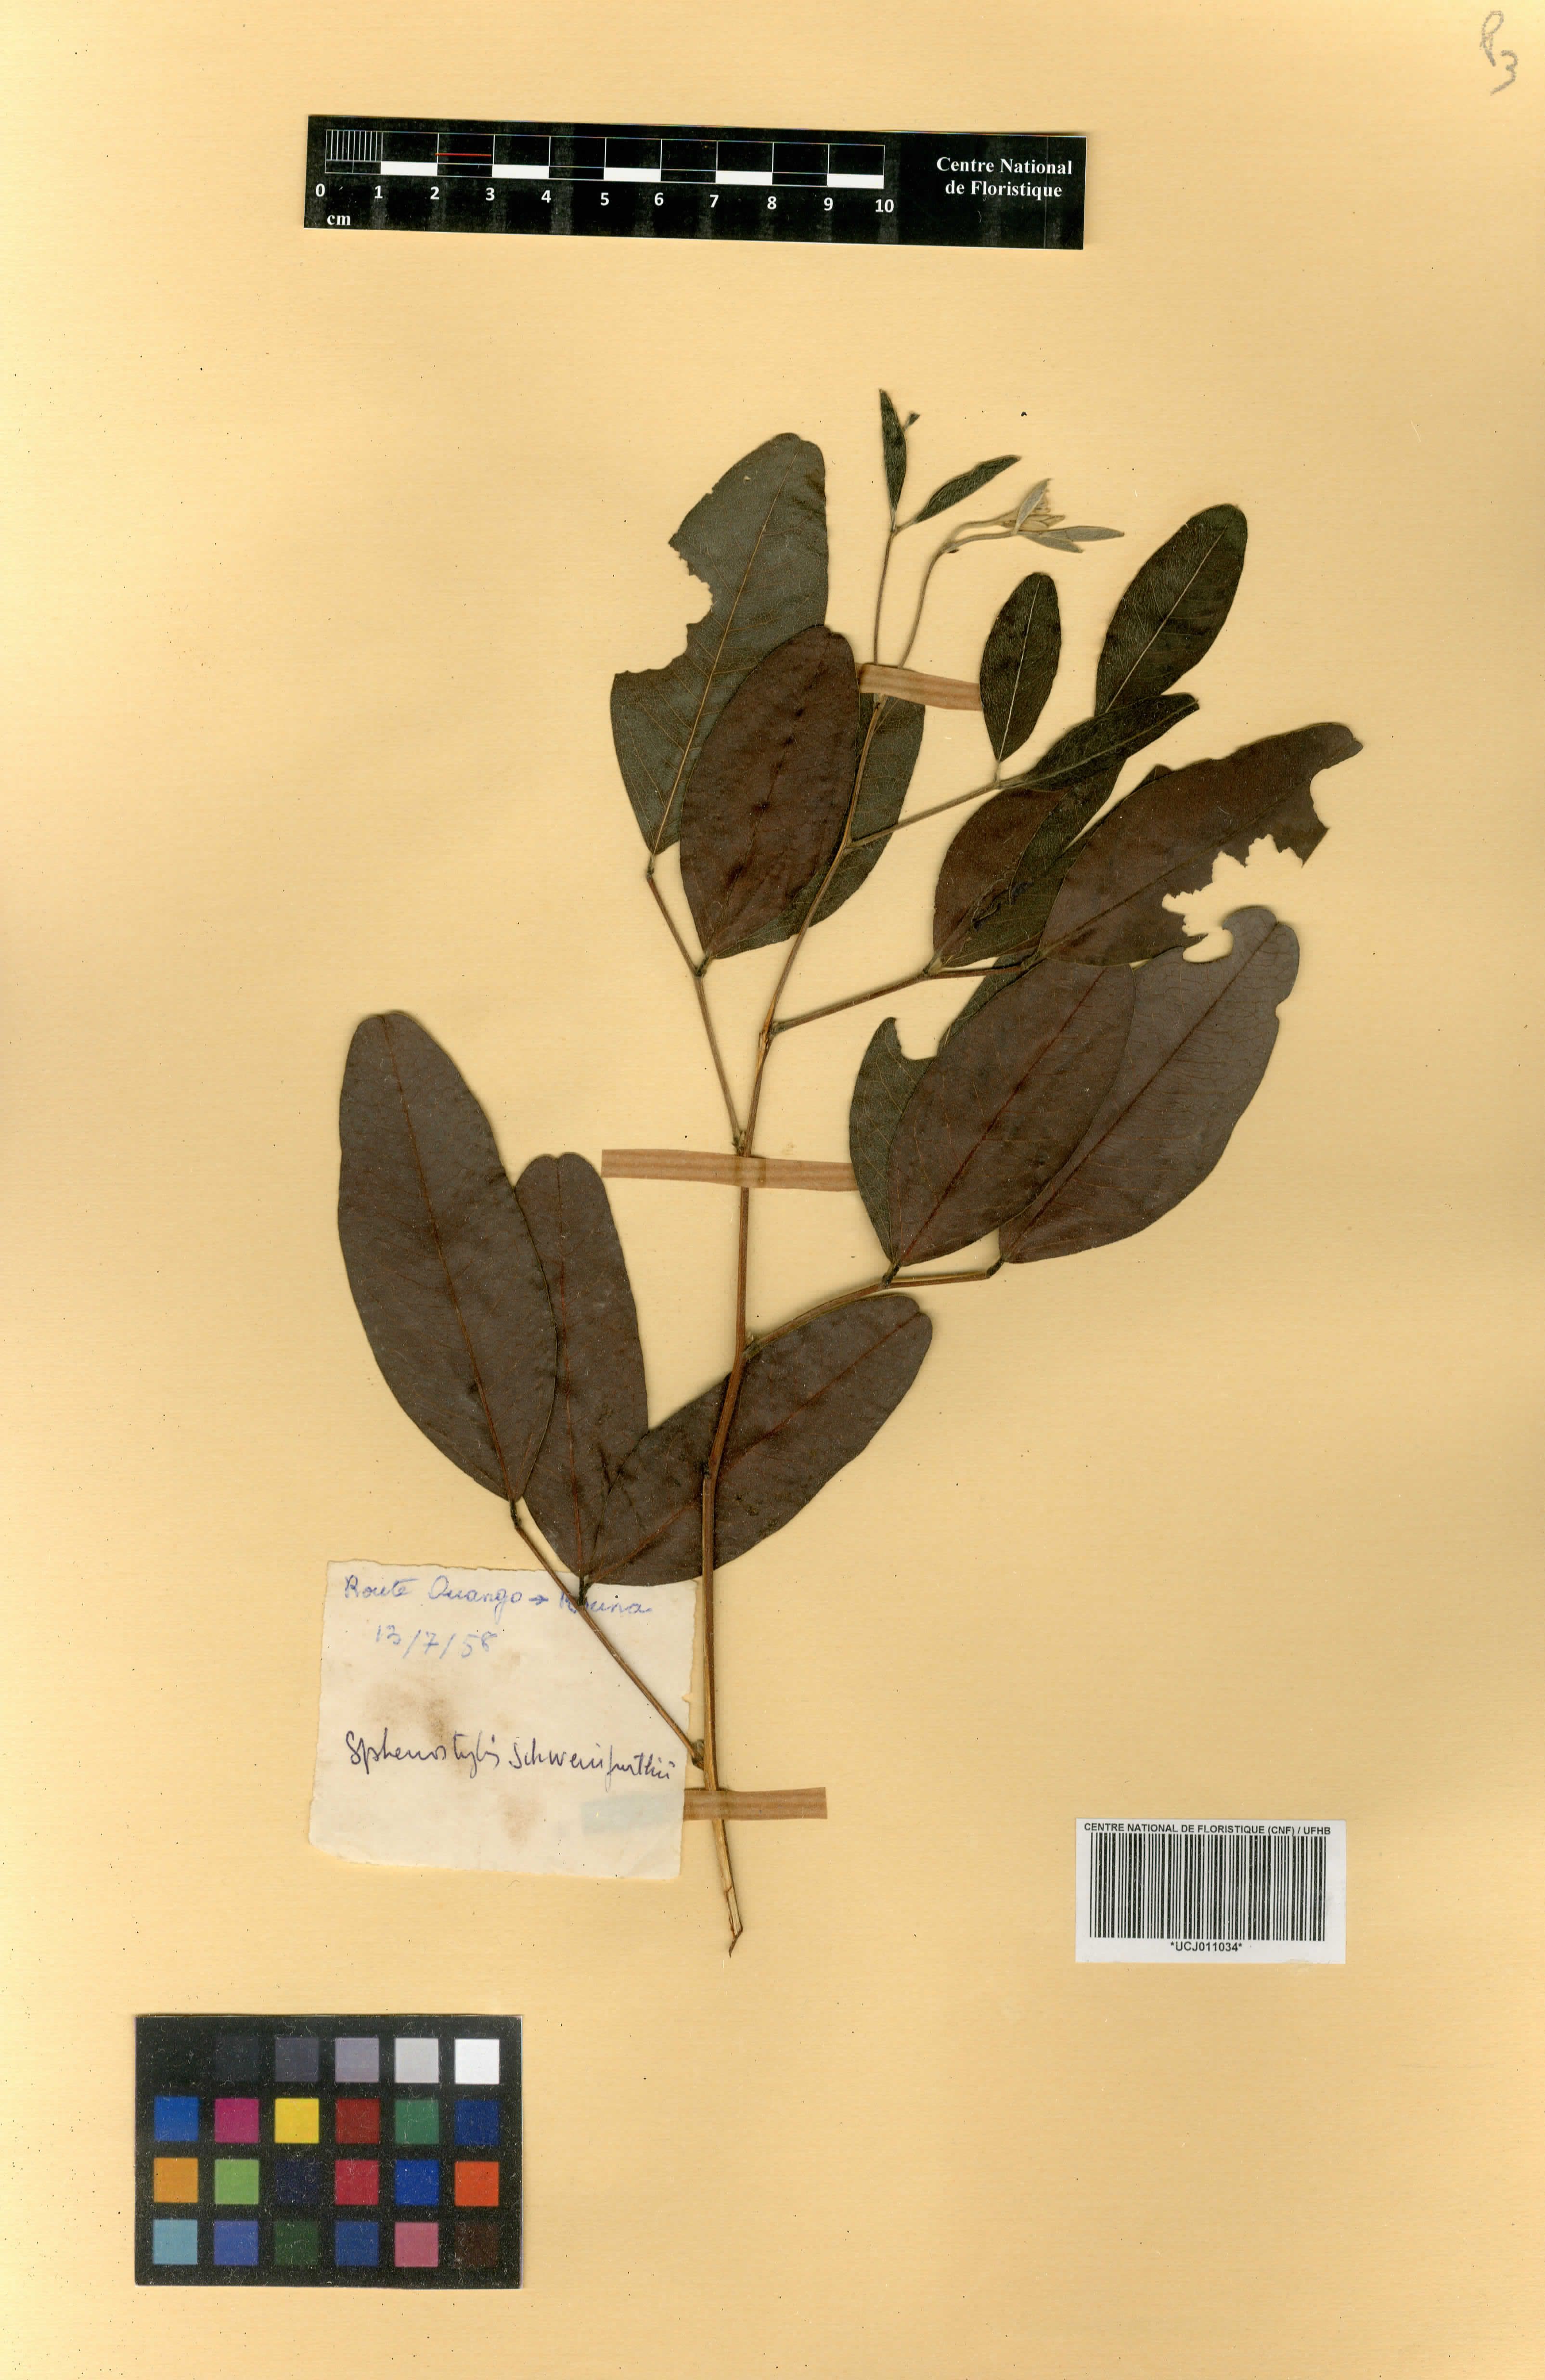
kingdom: Plantae
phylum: Tracheophyta
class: Magnoliopsida
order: Fabales
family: Fabaceae
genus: Sphenostylis
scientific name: Sphenostylis schweinfurthii
